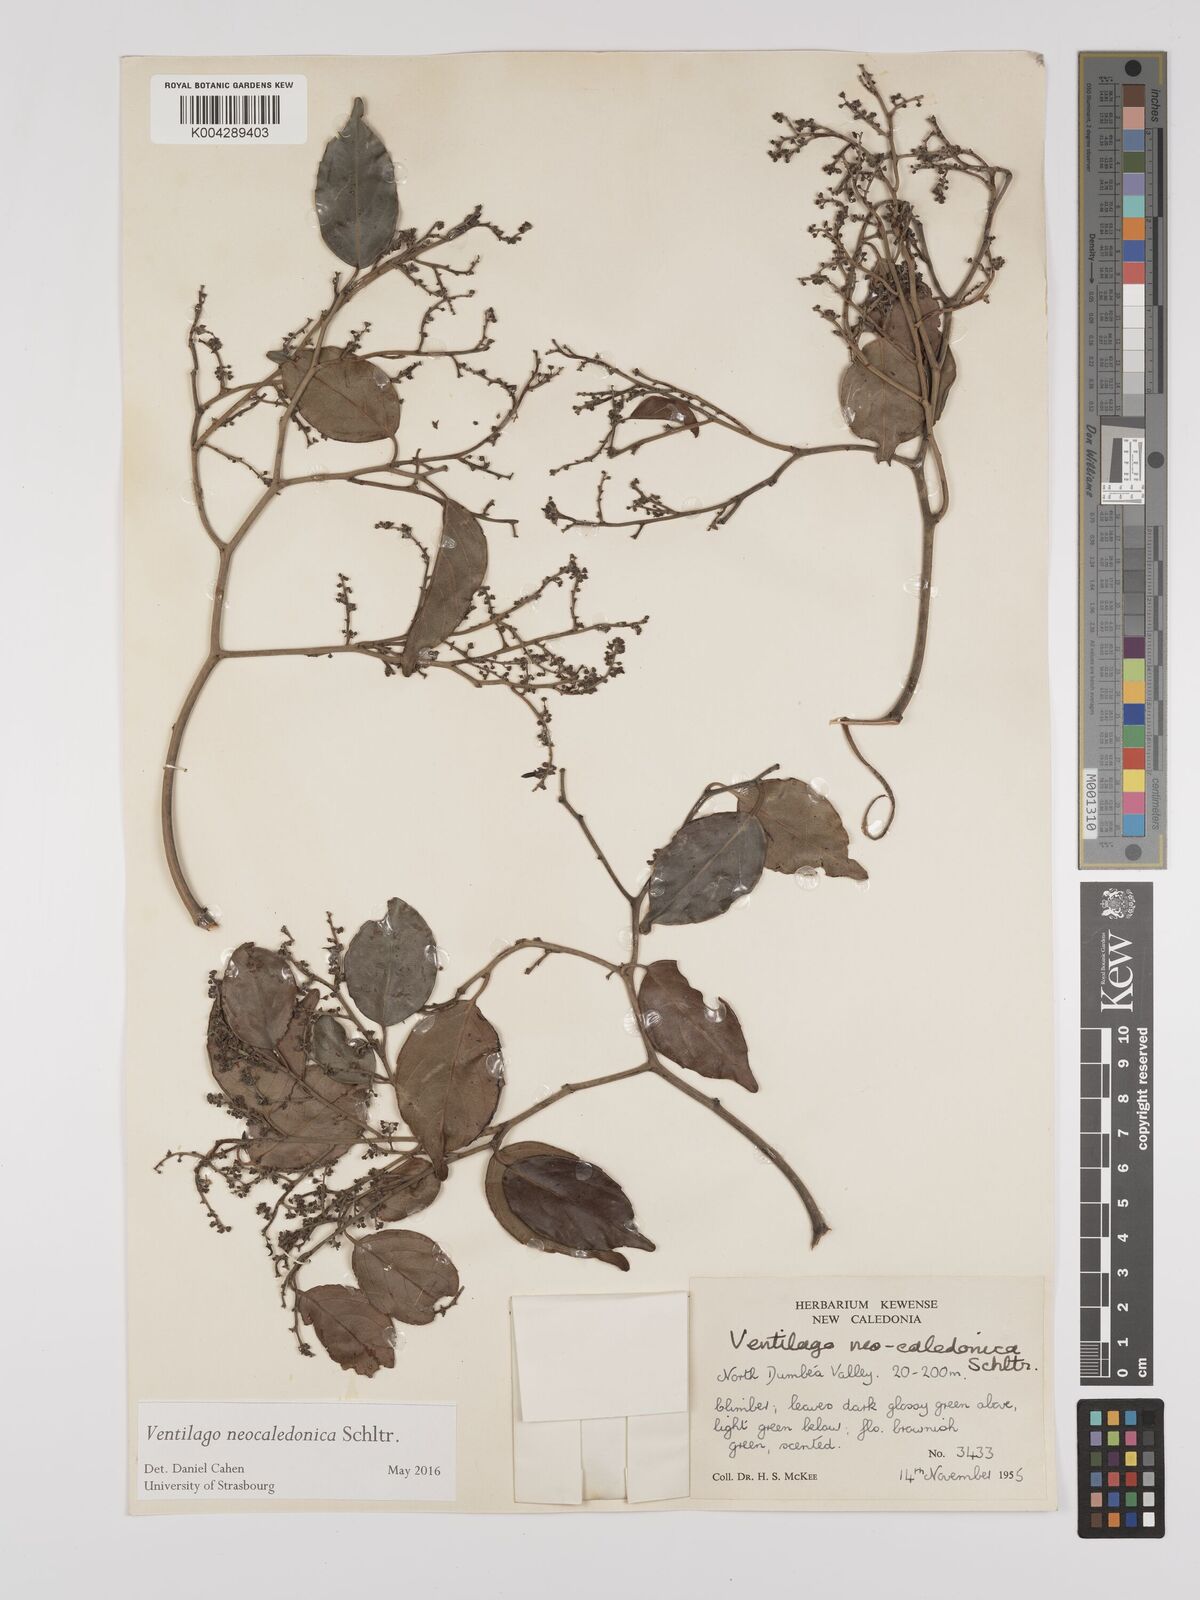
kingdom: Plantae
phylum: Tracheophyta
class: Magnoliopsida
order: Rosales
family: Rhamnaceae
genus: Ventilago
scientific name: Ventilago neocaledonica
